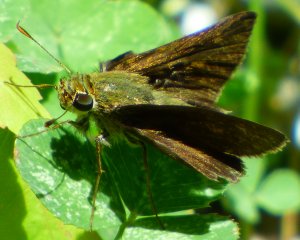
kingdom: Animalia
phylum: Arthropoda
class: Insecta
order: Lepidoptera
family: Hesperiidae
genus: Euphyes
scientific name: Euphyes vestris
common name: Dun Skipper
